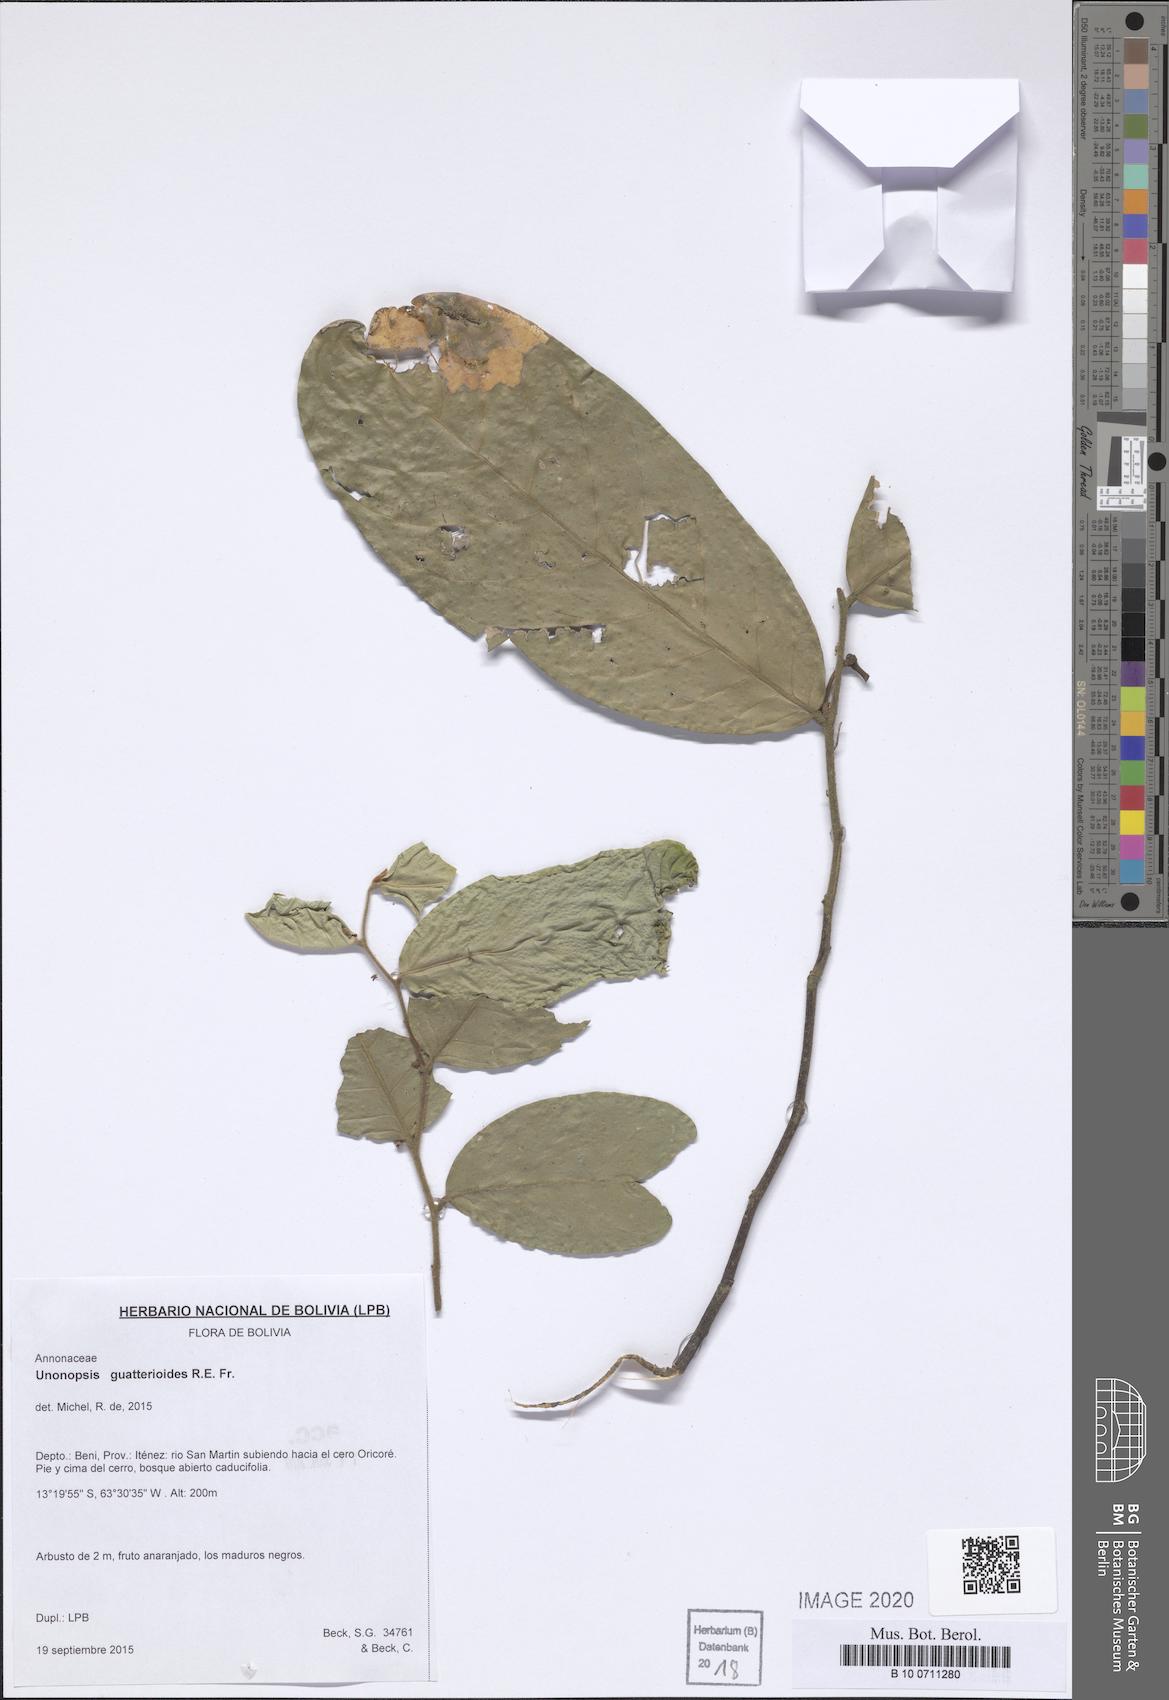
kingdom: Plantae
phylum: Tracheophyta
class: Magnoliopsida
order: Magnoliales
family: Annonaceae
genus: Unonopsis
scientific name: Unonopsis guatterioides
